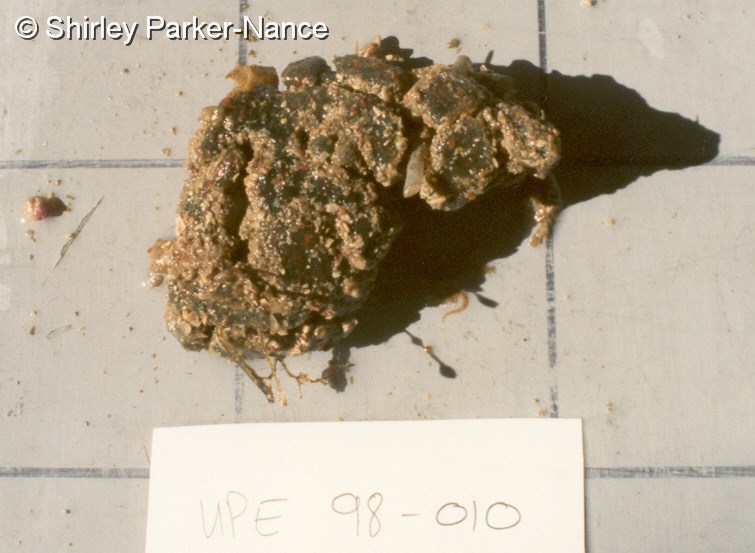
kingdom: Animalia
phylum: Chordata
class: Ascidiacea
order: Aplousobranchia
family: Polyclinidae
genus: Synoicum
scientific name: Synoicum
